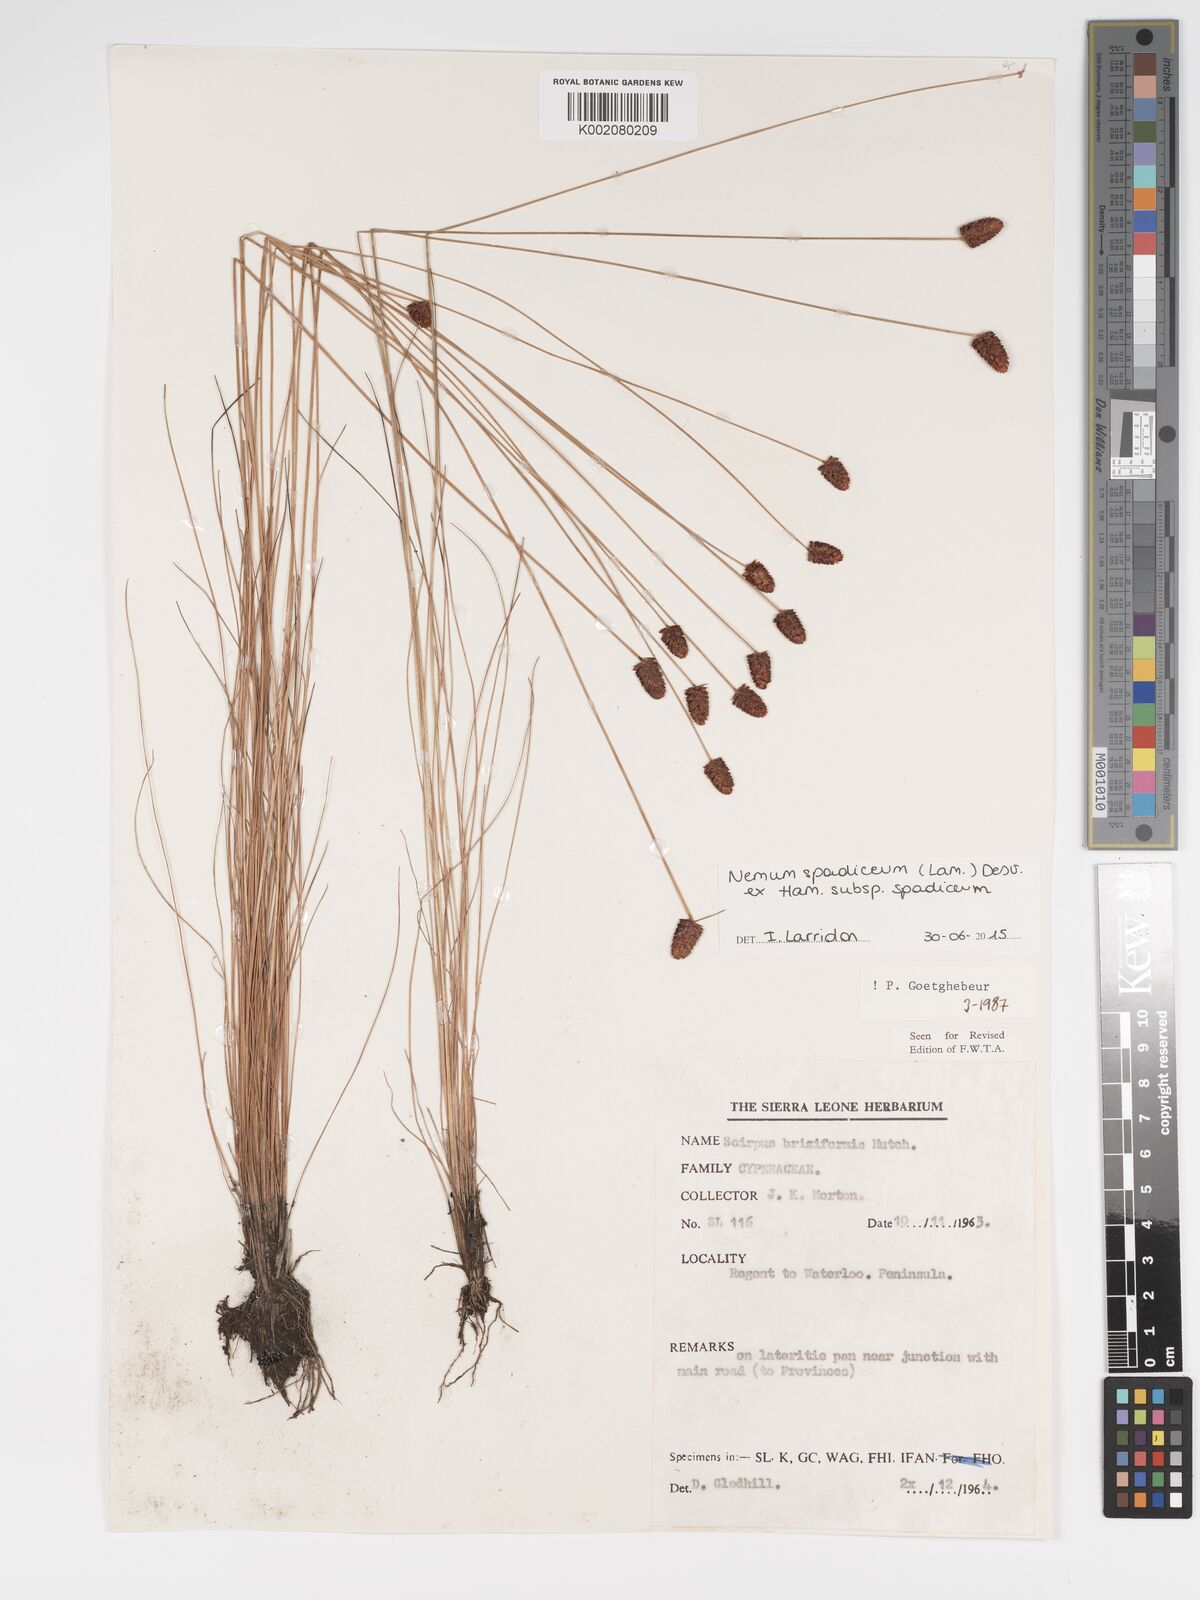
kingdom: Plantae
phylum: Tracheophyta
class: Liliopsida
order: Poales
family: Cyperaceae
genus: Bulbostylis
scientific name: Bulbostylis briziformis
